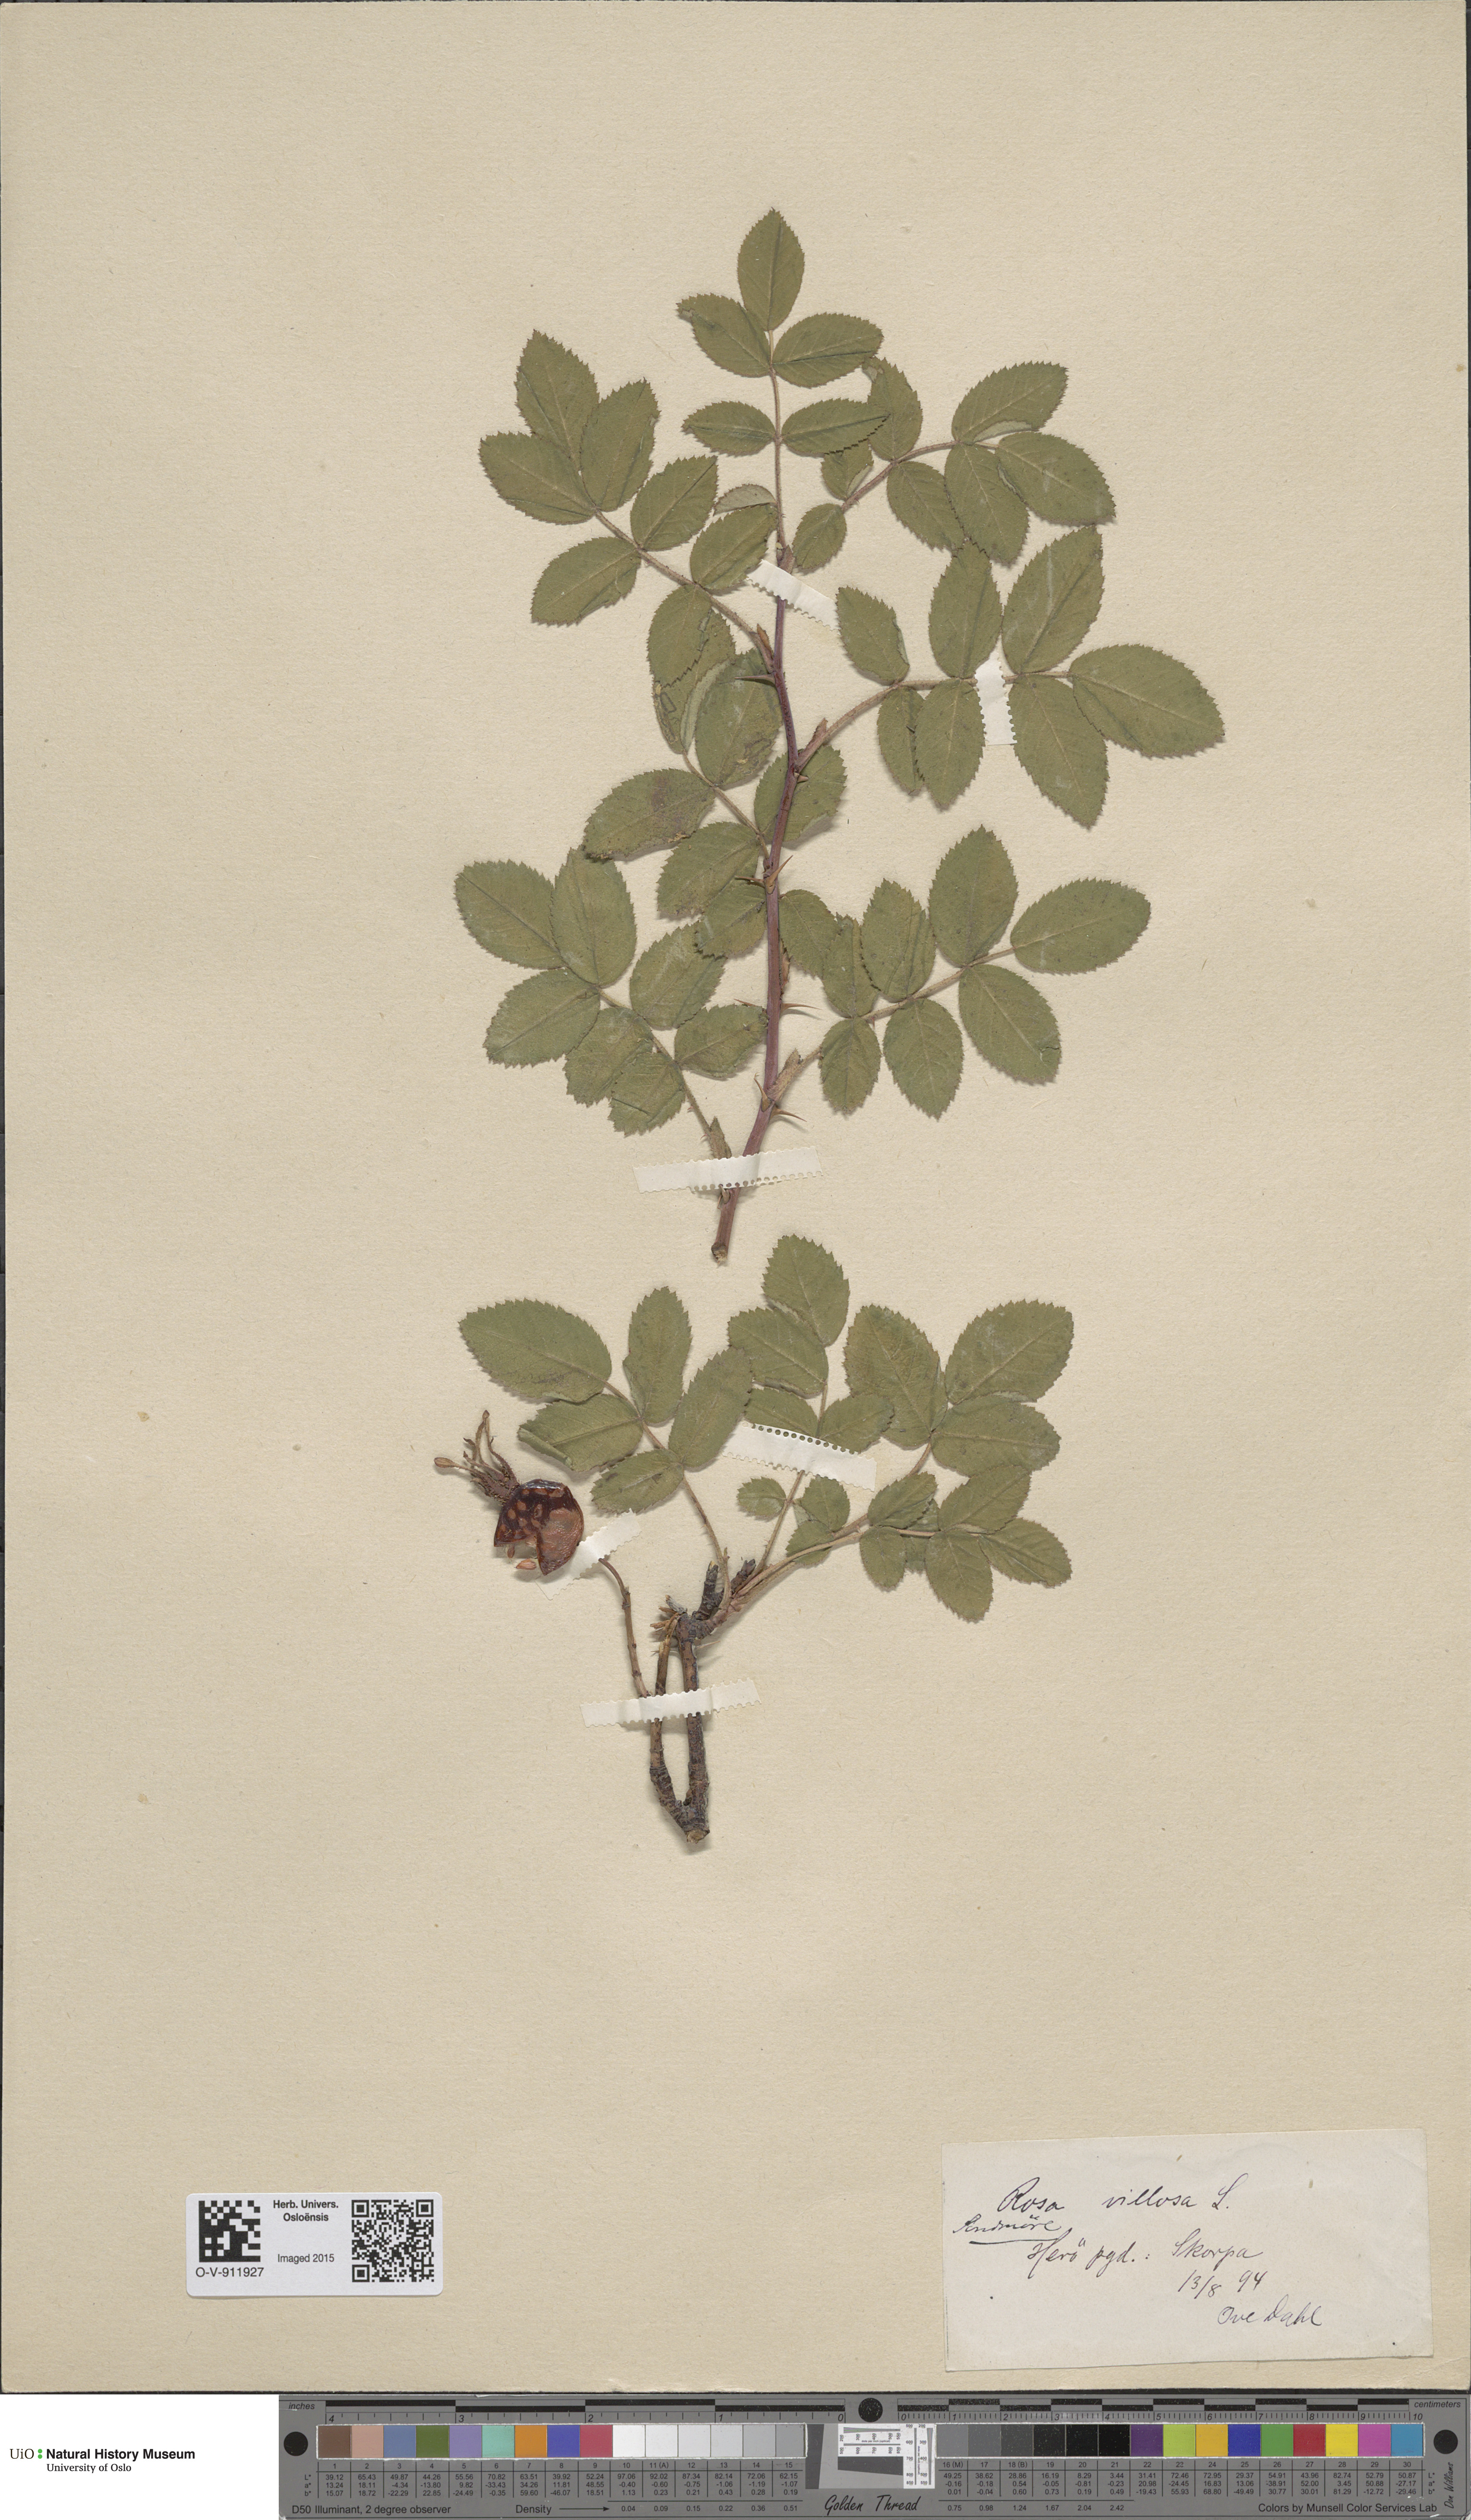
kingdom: Plantae
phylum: Tracheophyta
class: Magnoliopsida
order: Rosales
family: Rosaceae
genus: Rosa
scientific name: Rosa villosa
